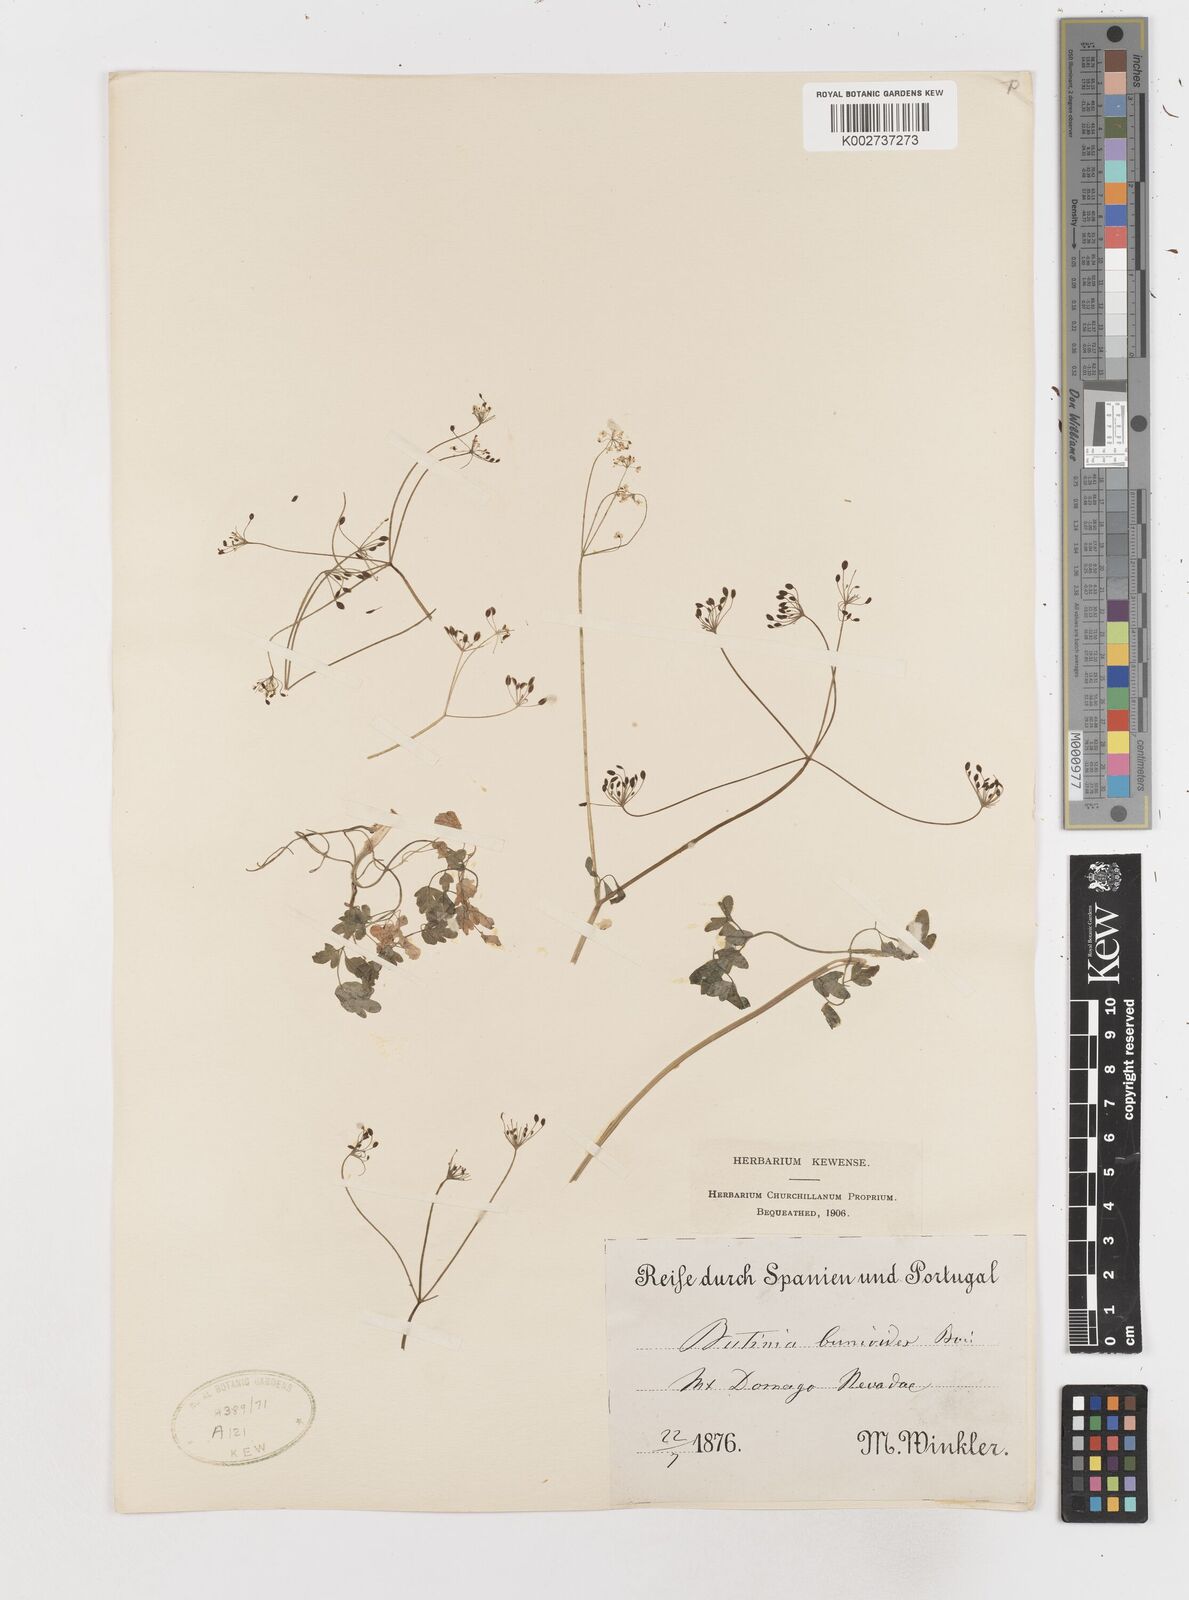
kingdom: Plantae
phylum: Tracheophyta
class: Magnoliopsida
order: Apiales
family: Apiaceae
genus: Conopodium
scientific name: Conopodium bunioides
